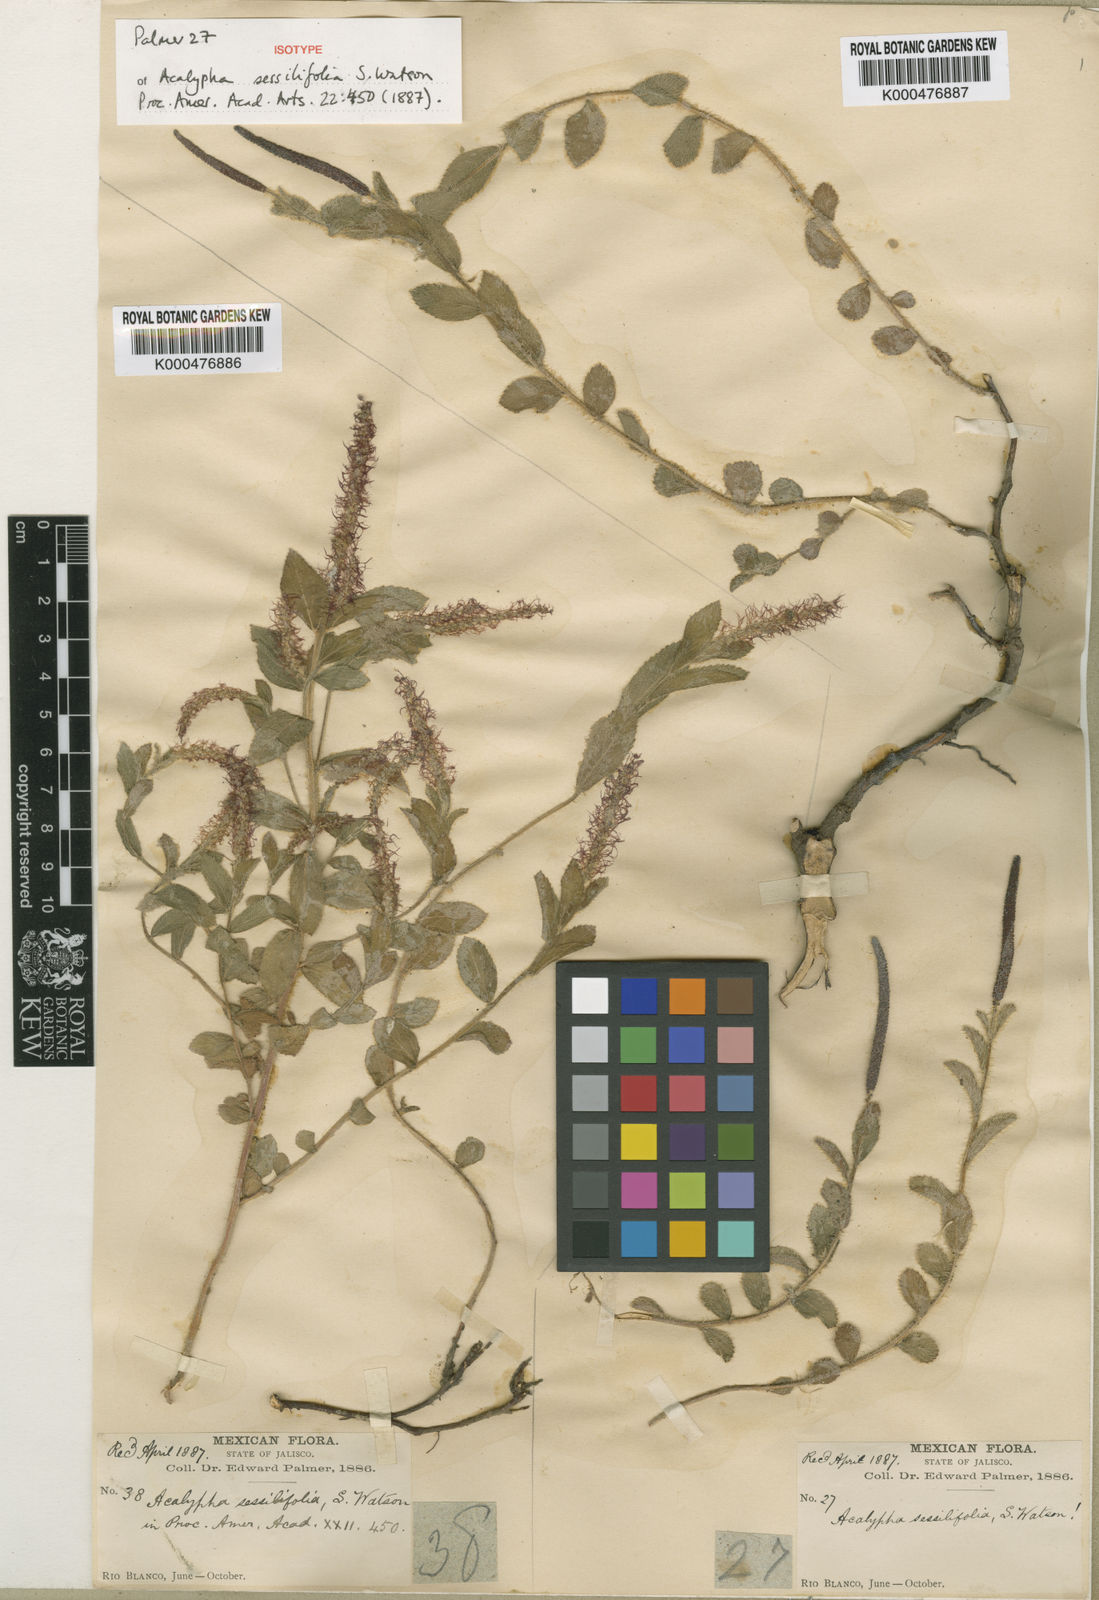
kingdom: Plantae
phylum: Tracheophyta
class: Magnoliopsida
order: Malpighiales
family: Euphorbiaceae
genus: Acalypha
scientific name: Acalypha sessilifolia
